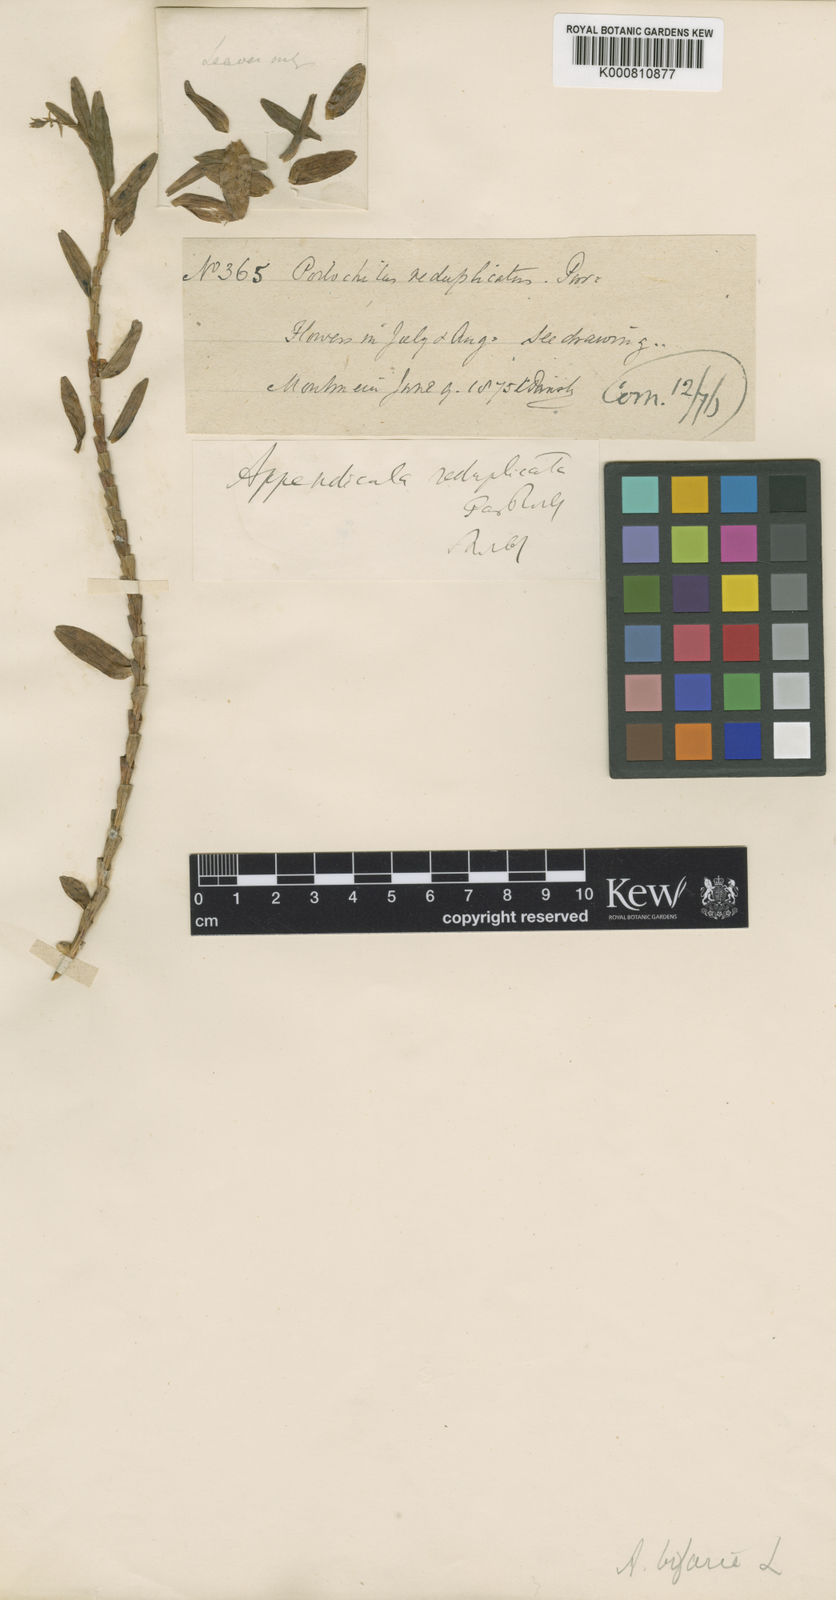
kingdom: Plantae
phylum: Tracheophyta
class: Liliopsida
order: Asparagales
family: Orchidaceae
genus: Appendicula
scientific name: Appendicula cornuta
